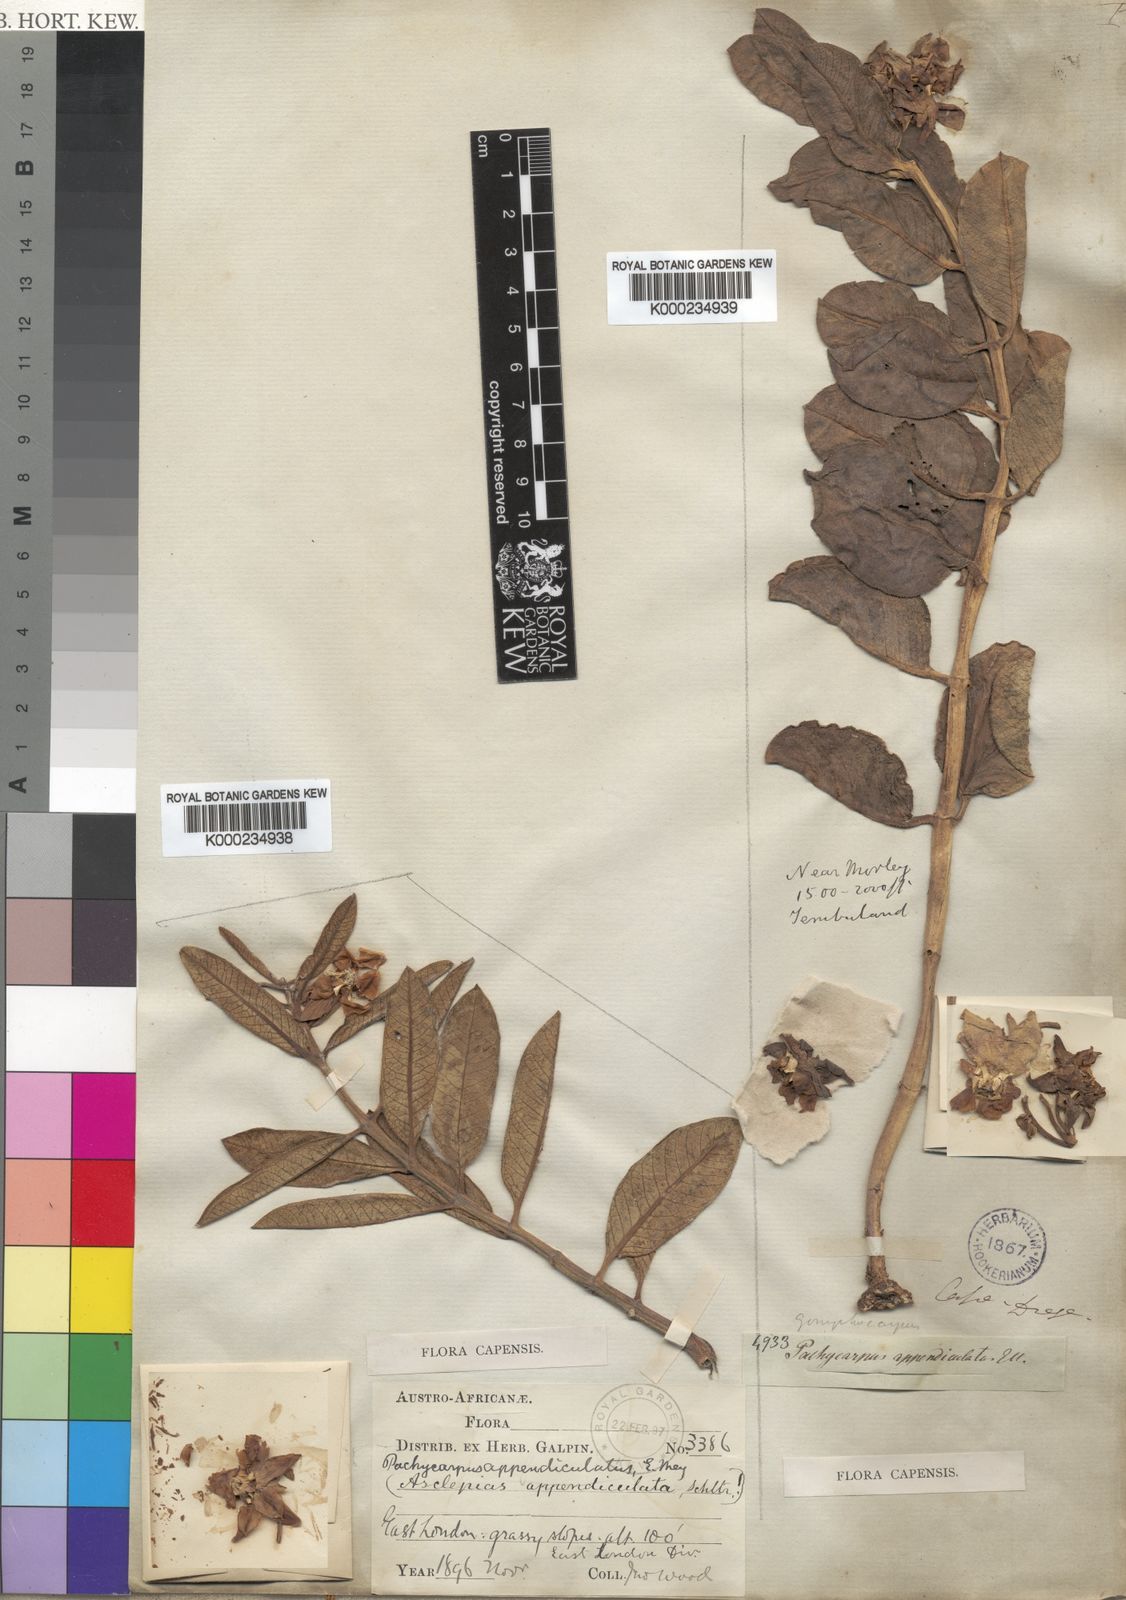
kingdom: Plantae
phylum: Tracheophyta
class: Magnoliopsida
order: Gentianales
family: Apocynaceae
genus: Pachycarpus
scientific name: Pachycarpus appendiculatus
